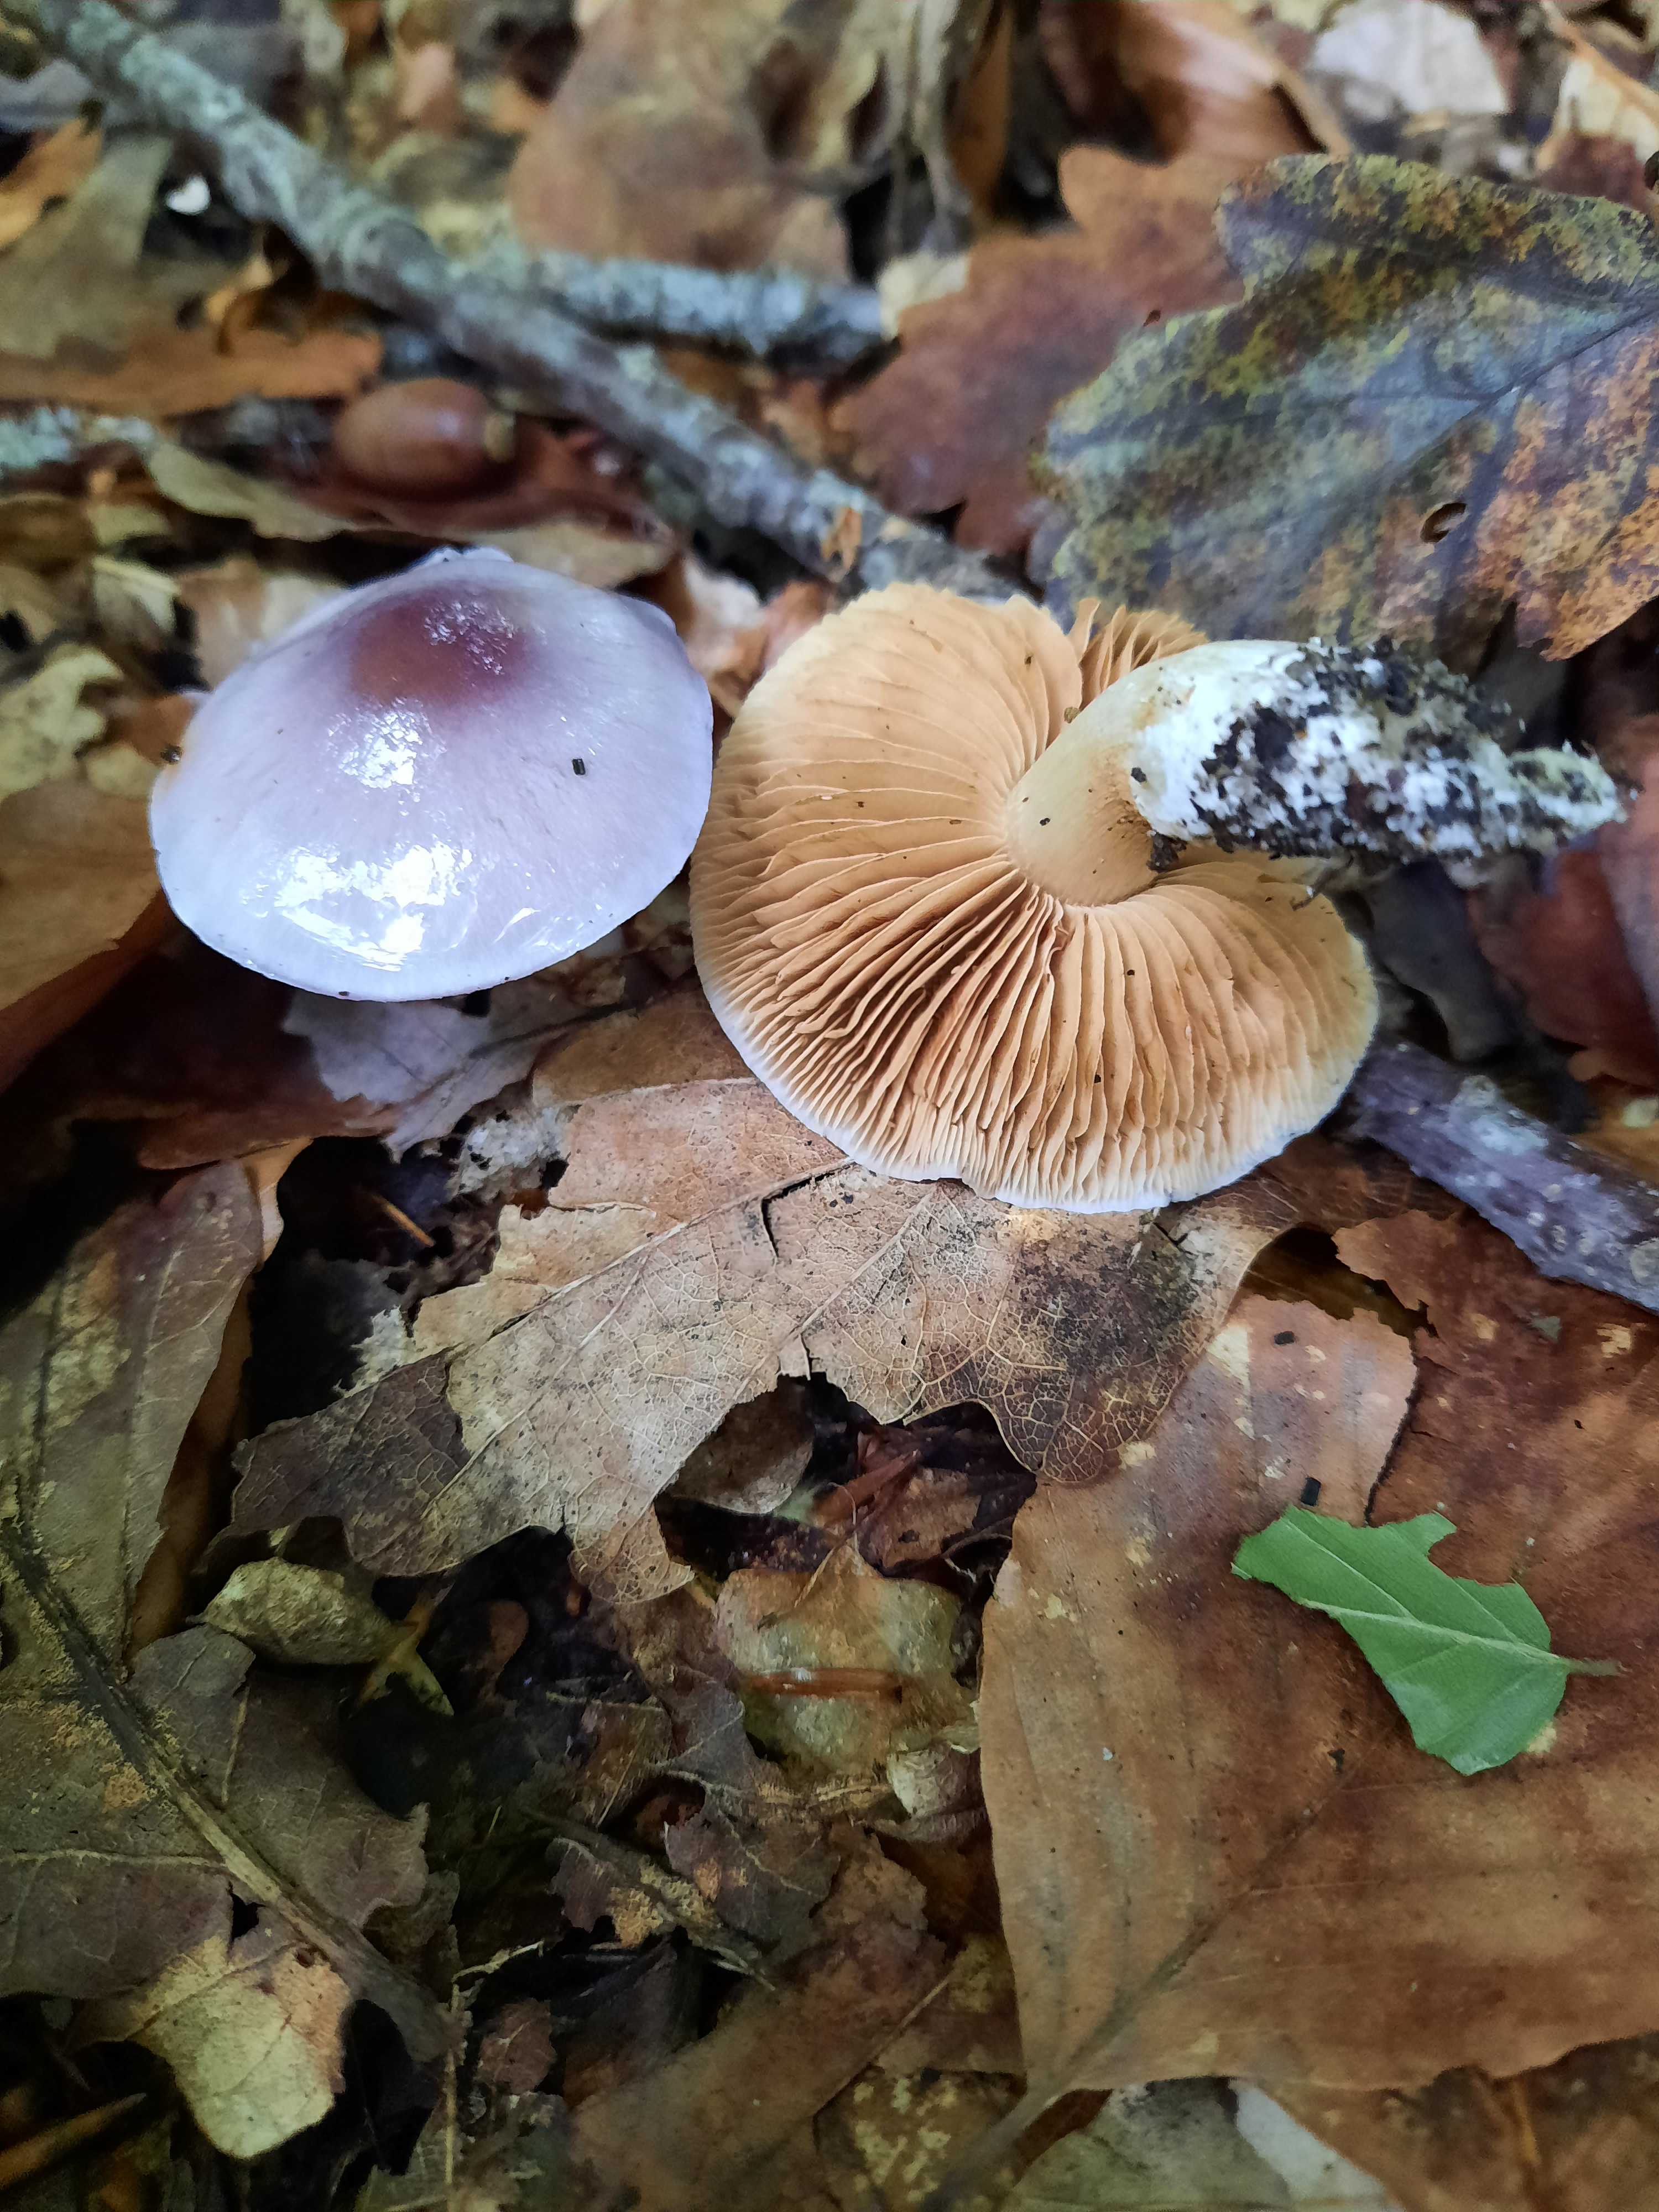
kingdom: Fungi
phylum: Basidiomycota
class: Agaricomycetes
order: Agaricales
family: Cortinariaceae
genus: Thaxterogaster
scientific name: Thaxterogaster croceocoeruleus
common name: blågullig slørhat
